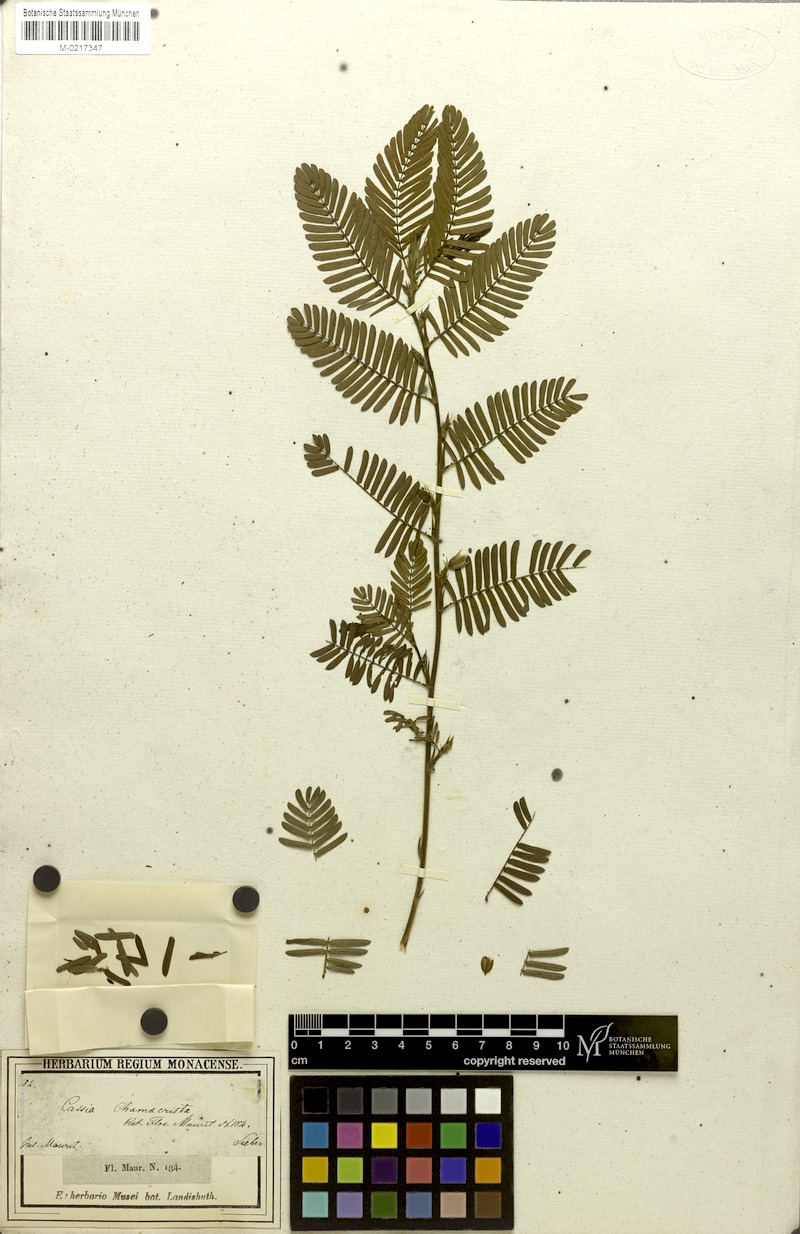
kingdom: Plantae
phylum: Tracheophyta
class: Magnoliopsida
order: Fabales
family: Fabaceae
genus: Cassia
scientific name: Cassia
